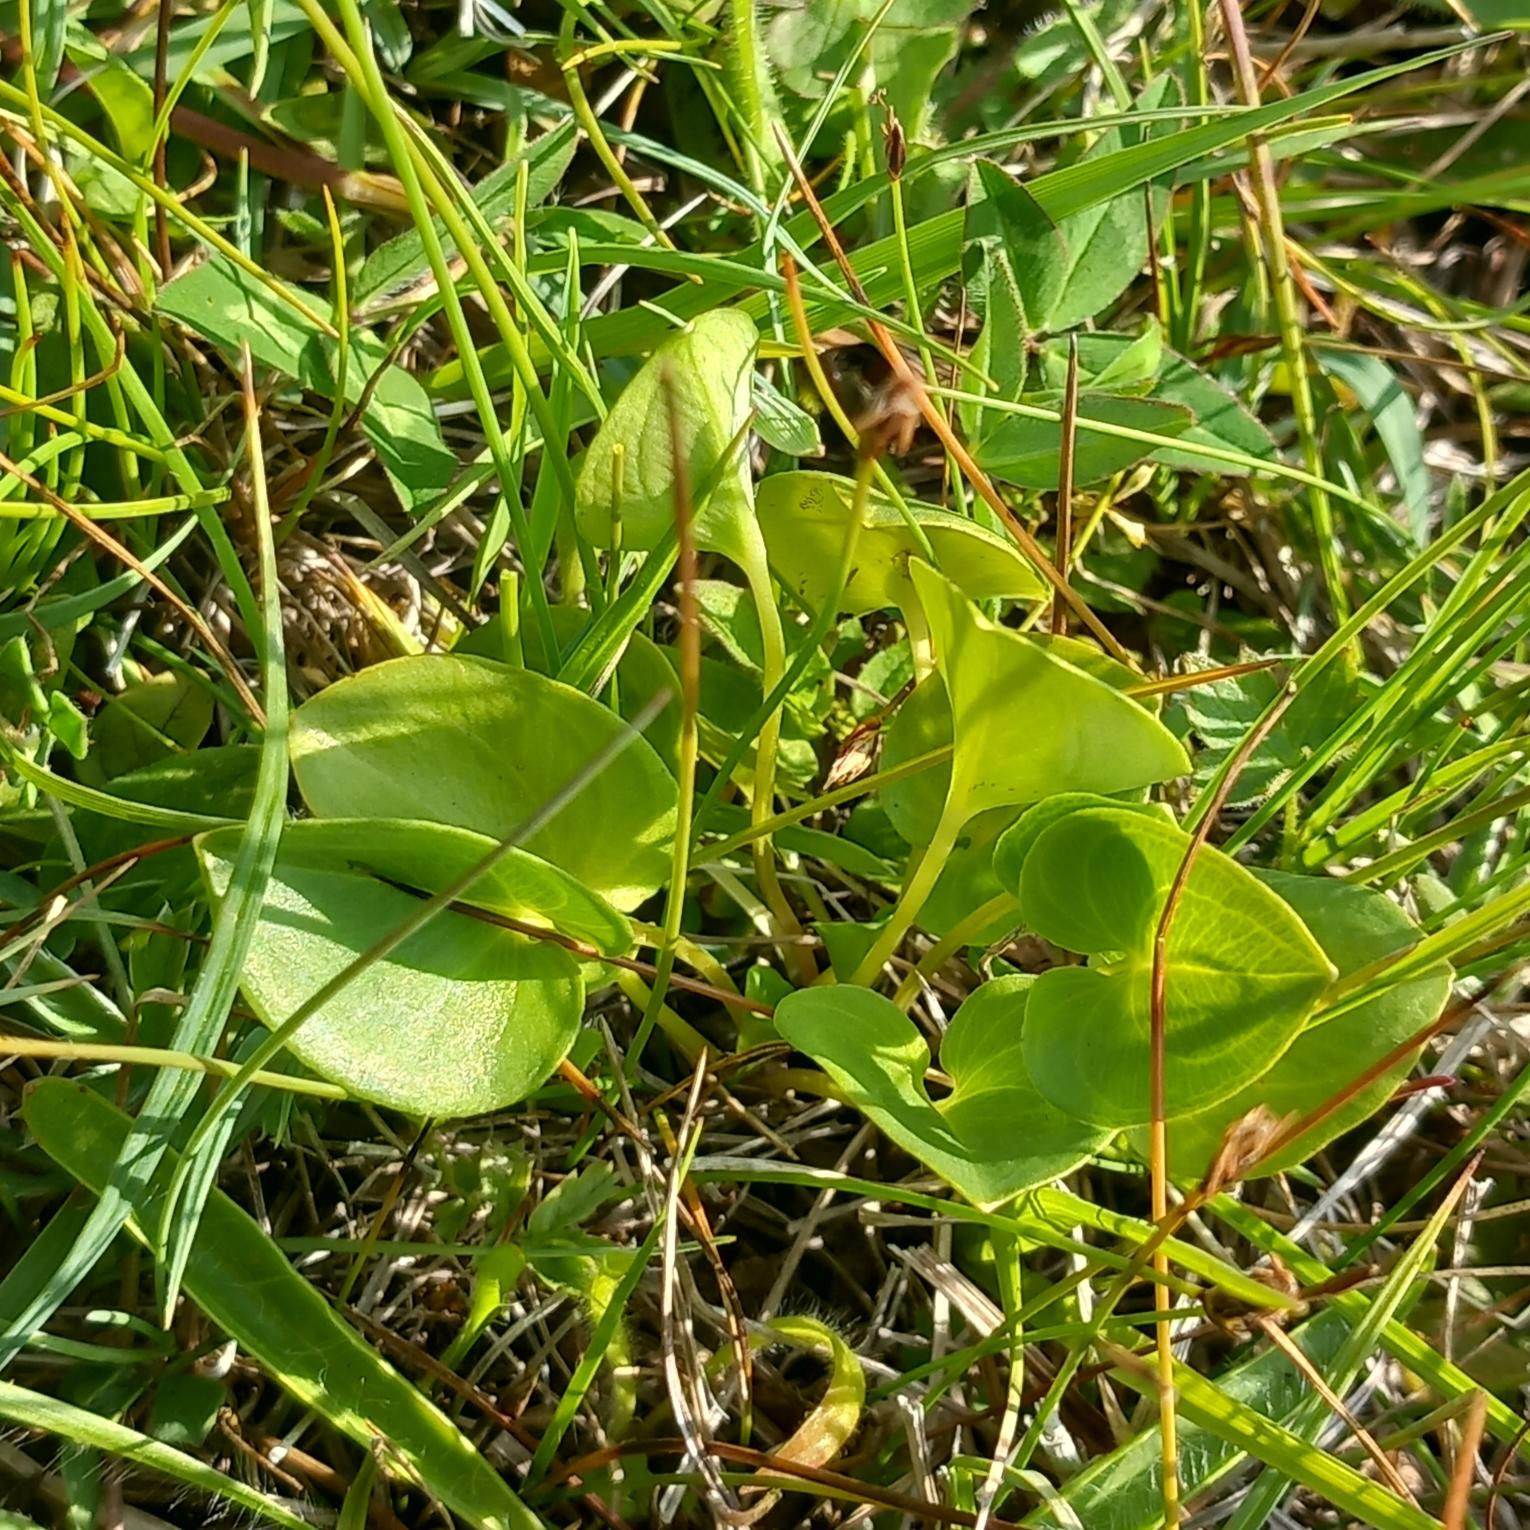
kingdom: Plantae
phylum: Tracheophyta
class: Magnoliopsida
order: Celastrales
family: Parnassiaceae
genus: Parnassia
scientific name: Parnassia palustris
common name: Leverurt
